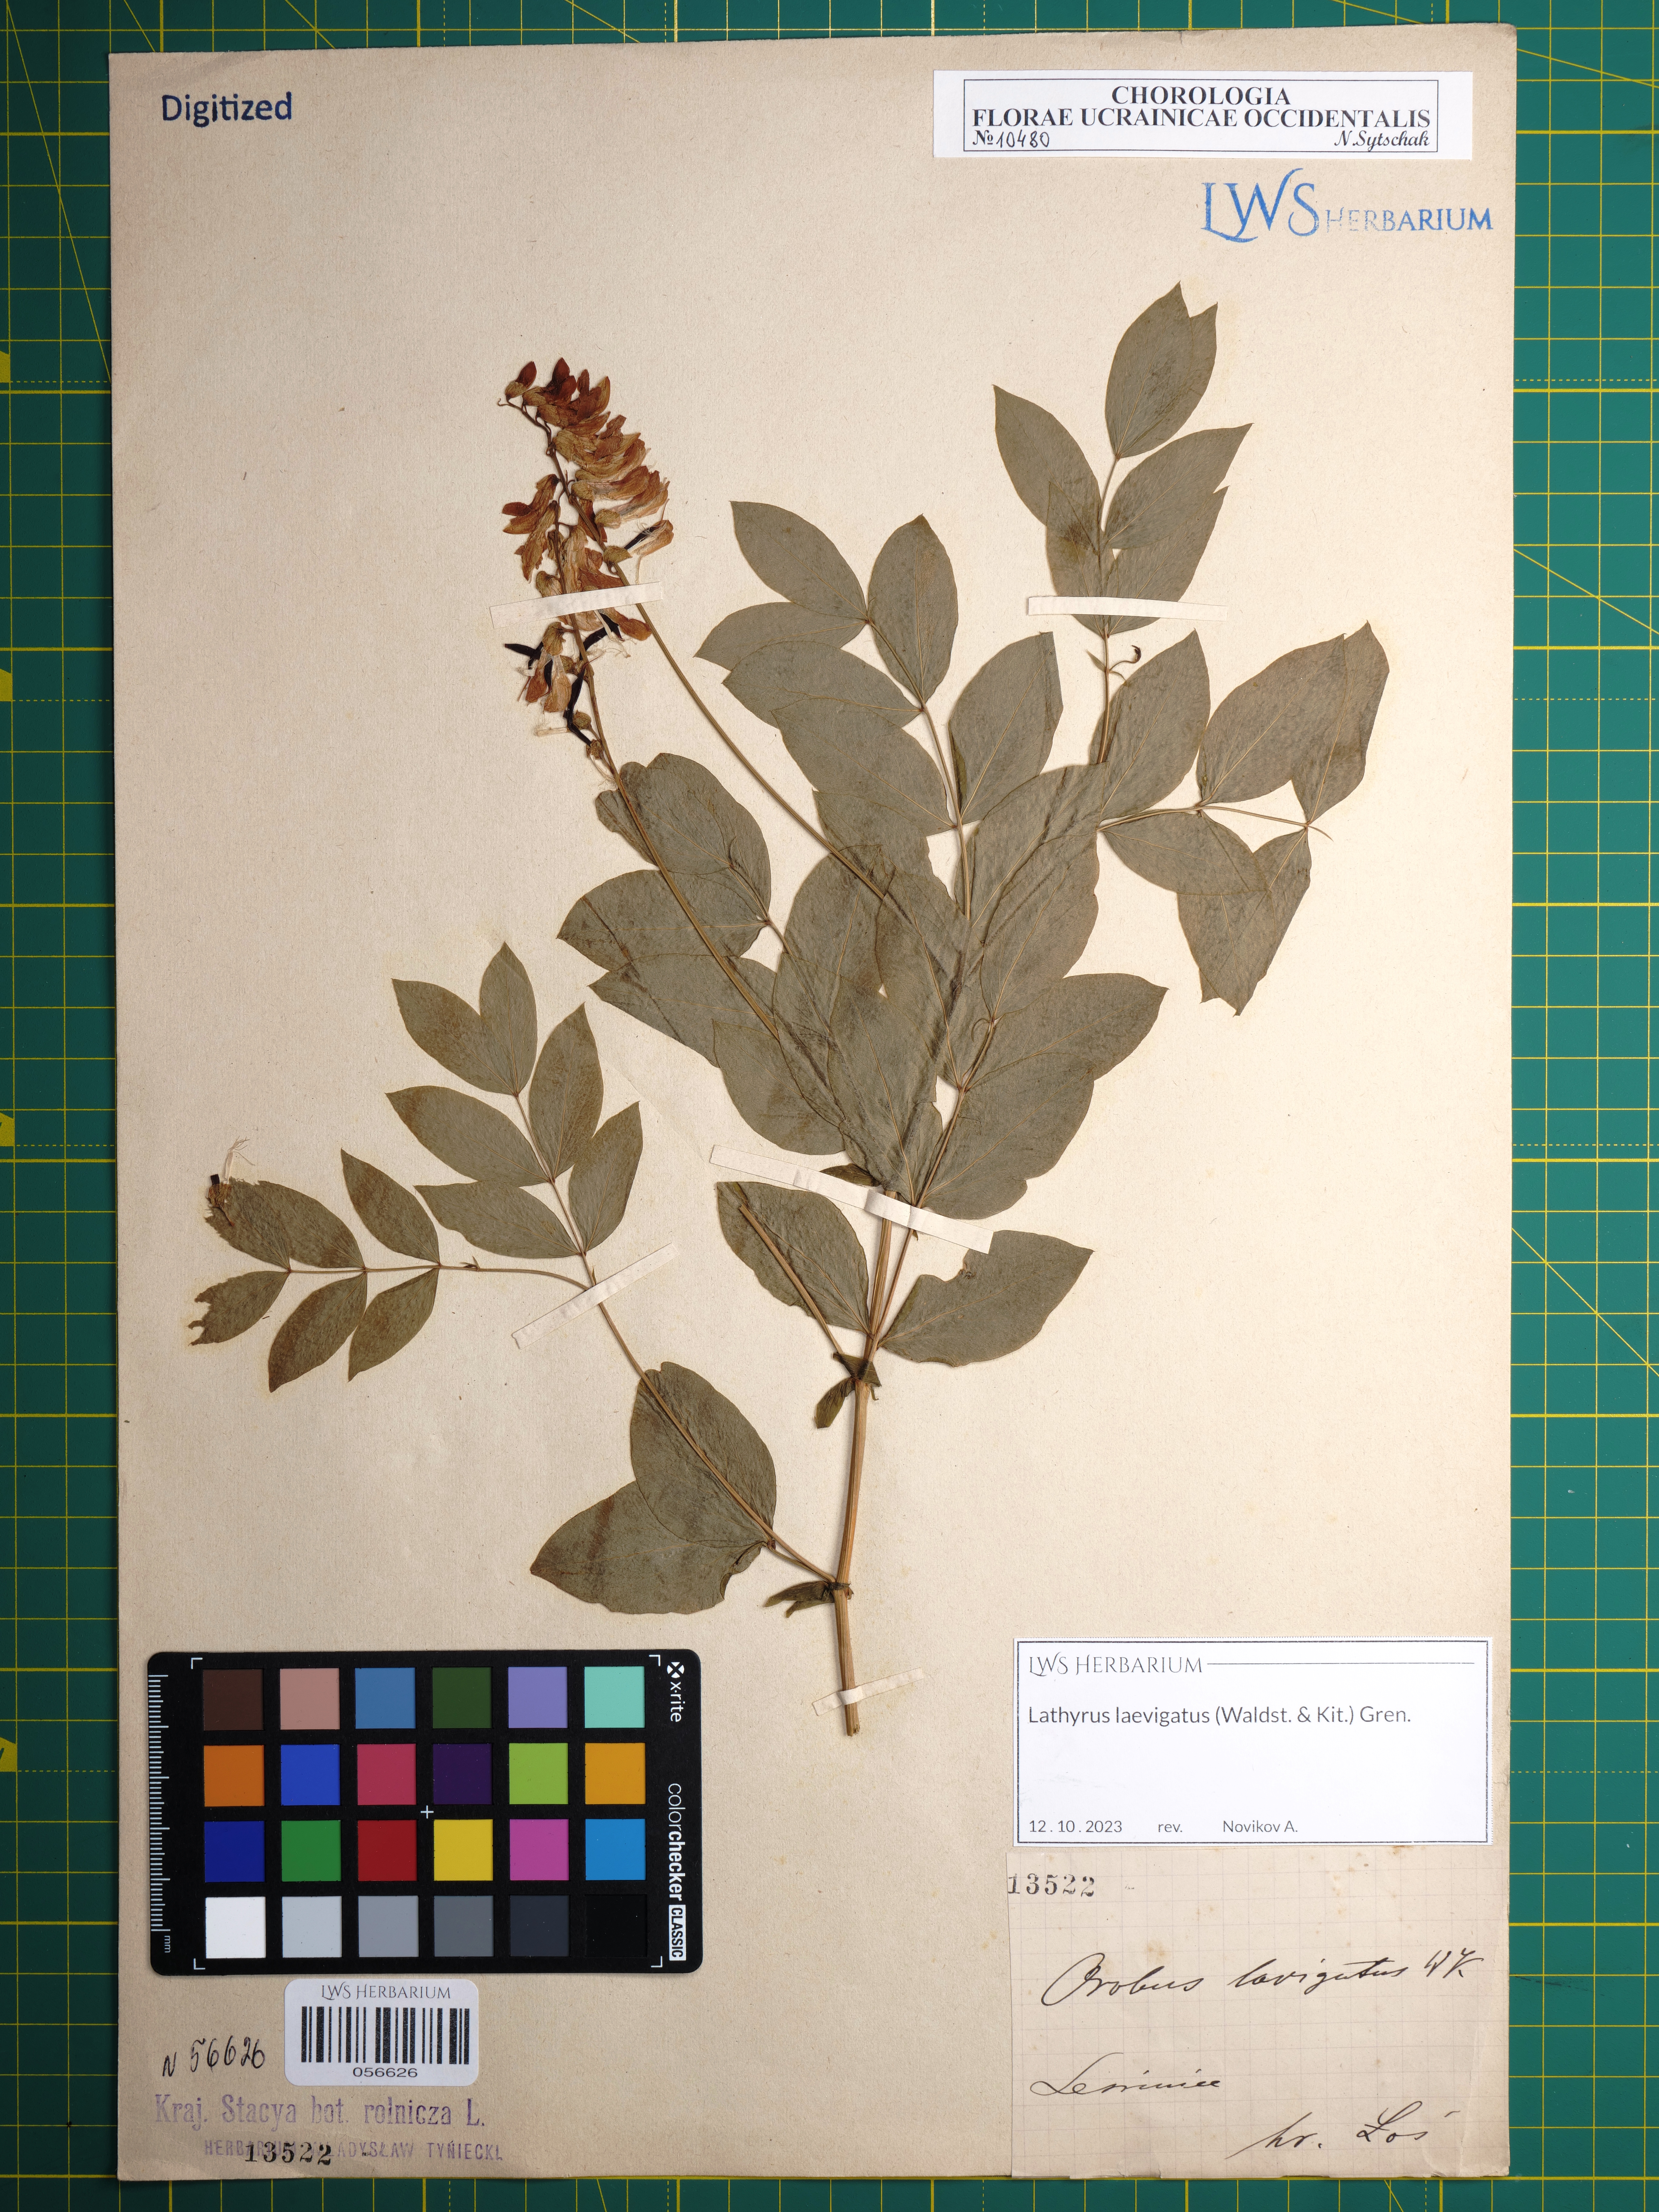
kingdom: Plantae
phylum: Tracheophyta
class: Magnoliopsida
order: Fabales
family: Fabaceae
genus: Lathyrus
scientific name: Lathyrus laevigatus
